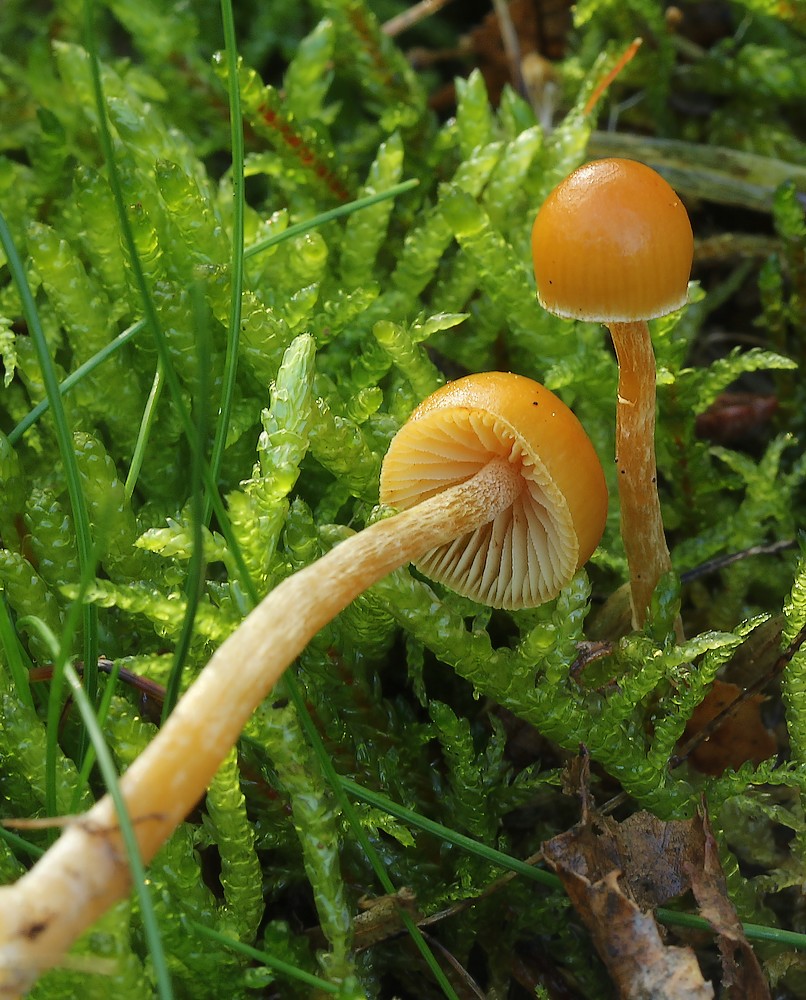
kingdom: Fungi
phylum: Basidiomycota
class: Agaricomycetes
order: Agaricales
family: Hymenogastraceae
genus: Galerina
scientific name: Galerina pumila
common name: honninggul hjelmhat
